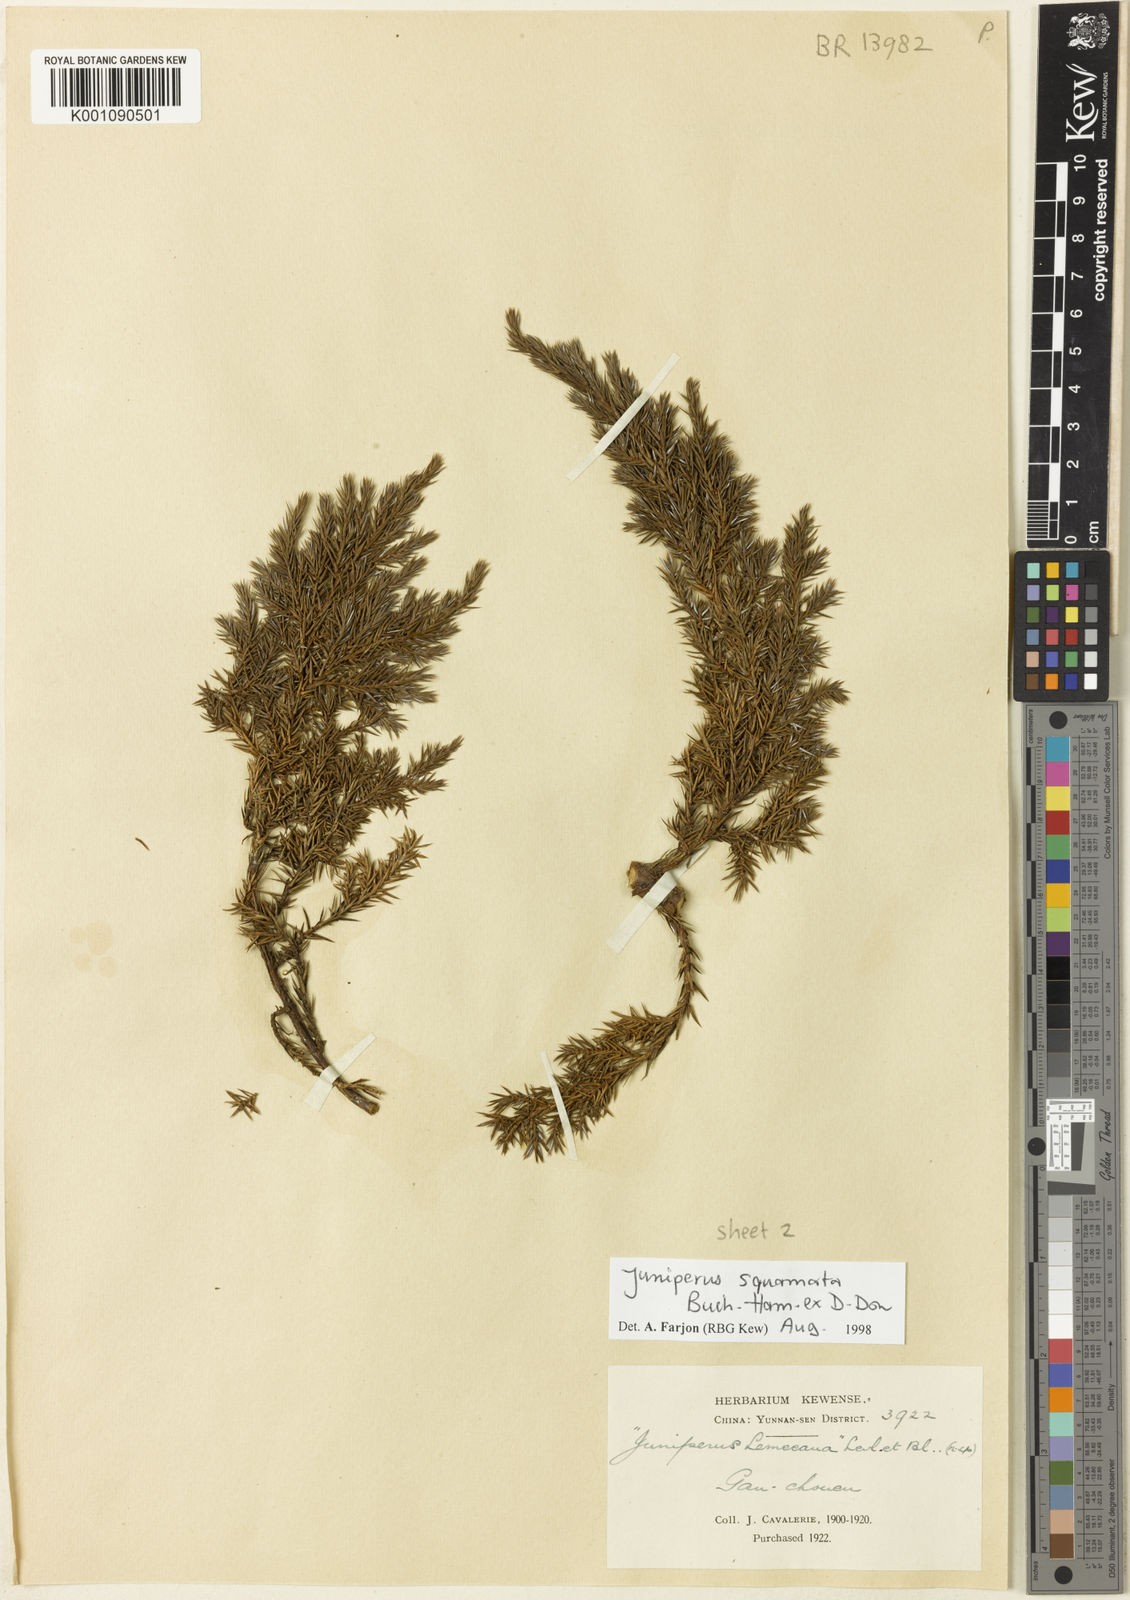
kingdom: Plantae
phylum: Tracheophyta
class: Pinopsida
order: Pinales
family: Cupressaceae
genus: Juniperus
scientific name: Juniperus squamata
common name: Flaky juniper
